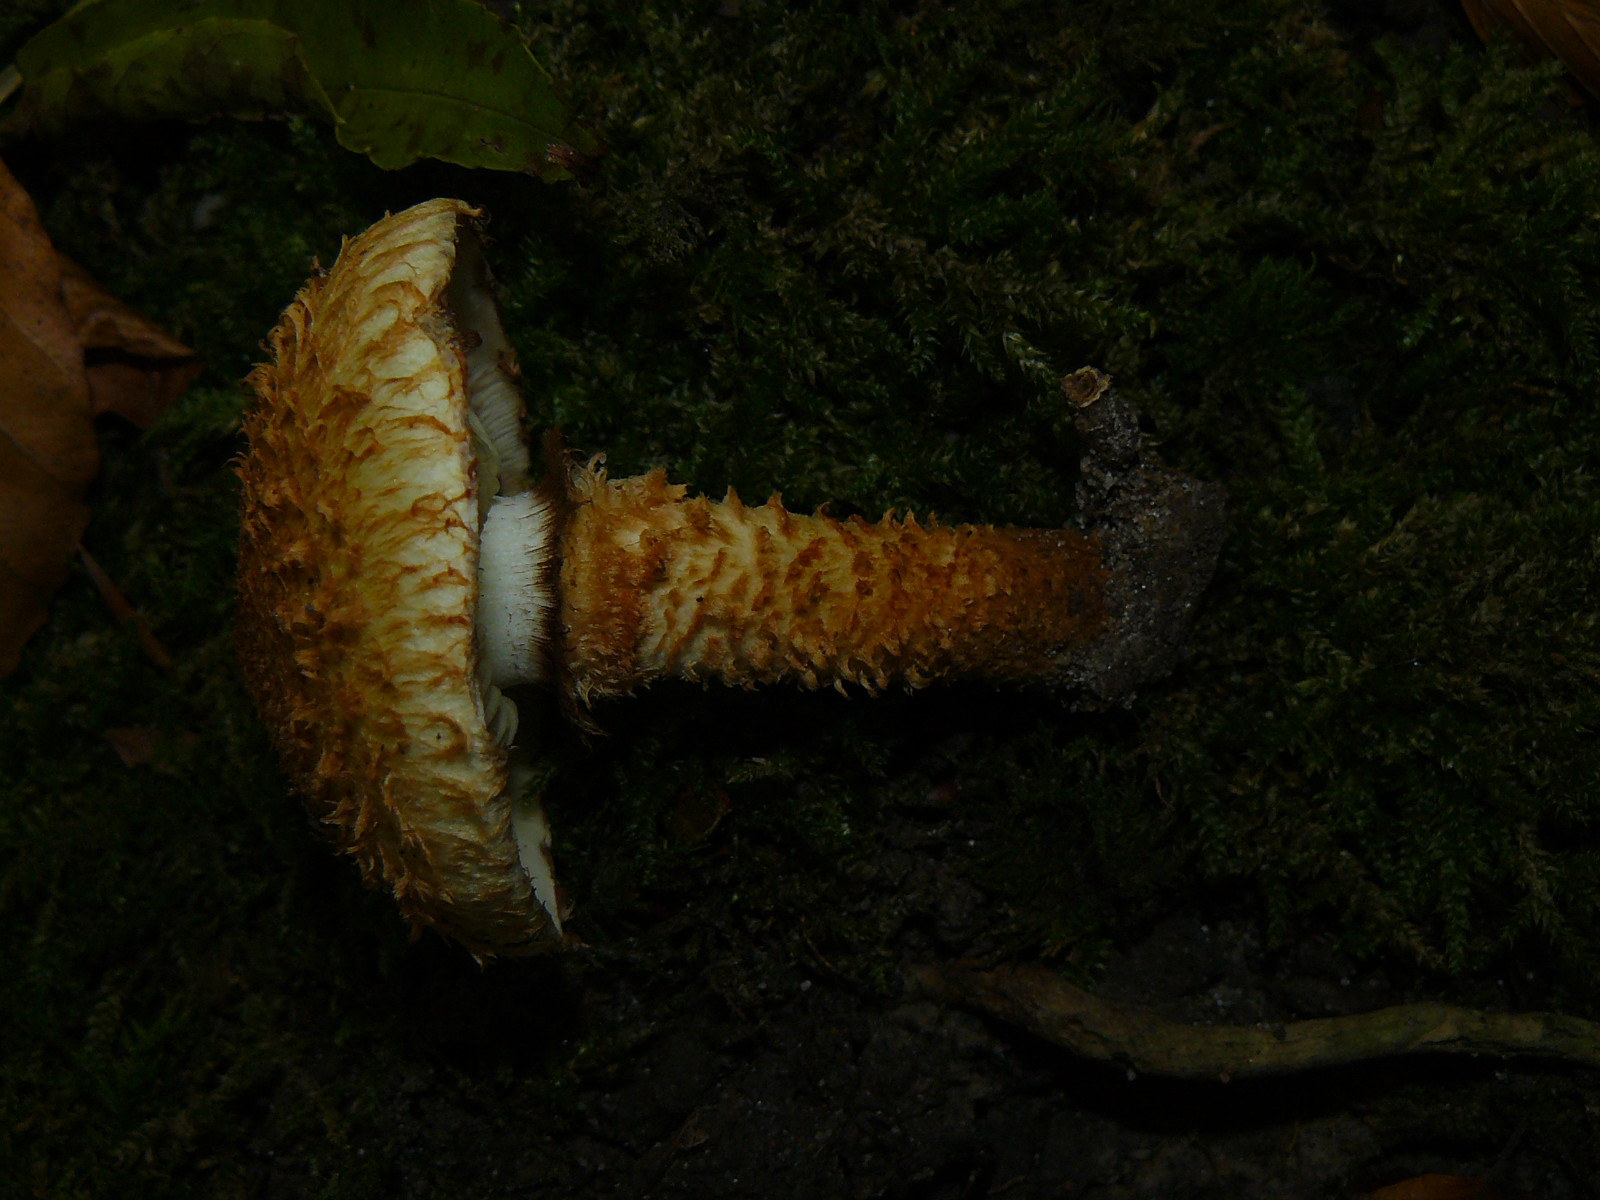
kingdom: Fungi
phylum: Basidiomycota
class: Agaricomycetes
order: Agaricales
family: Strophariaceae
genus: Pholiota
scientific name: Pholiota squarrosa
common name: krumskællet skælhat
